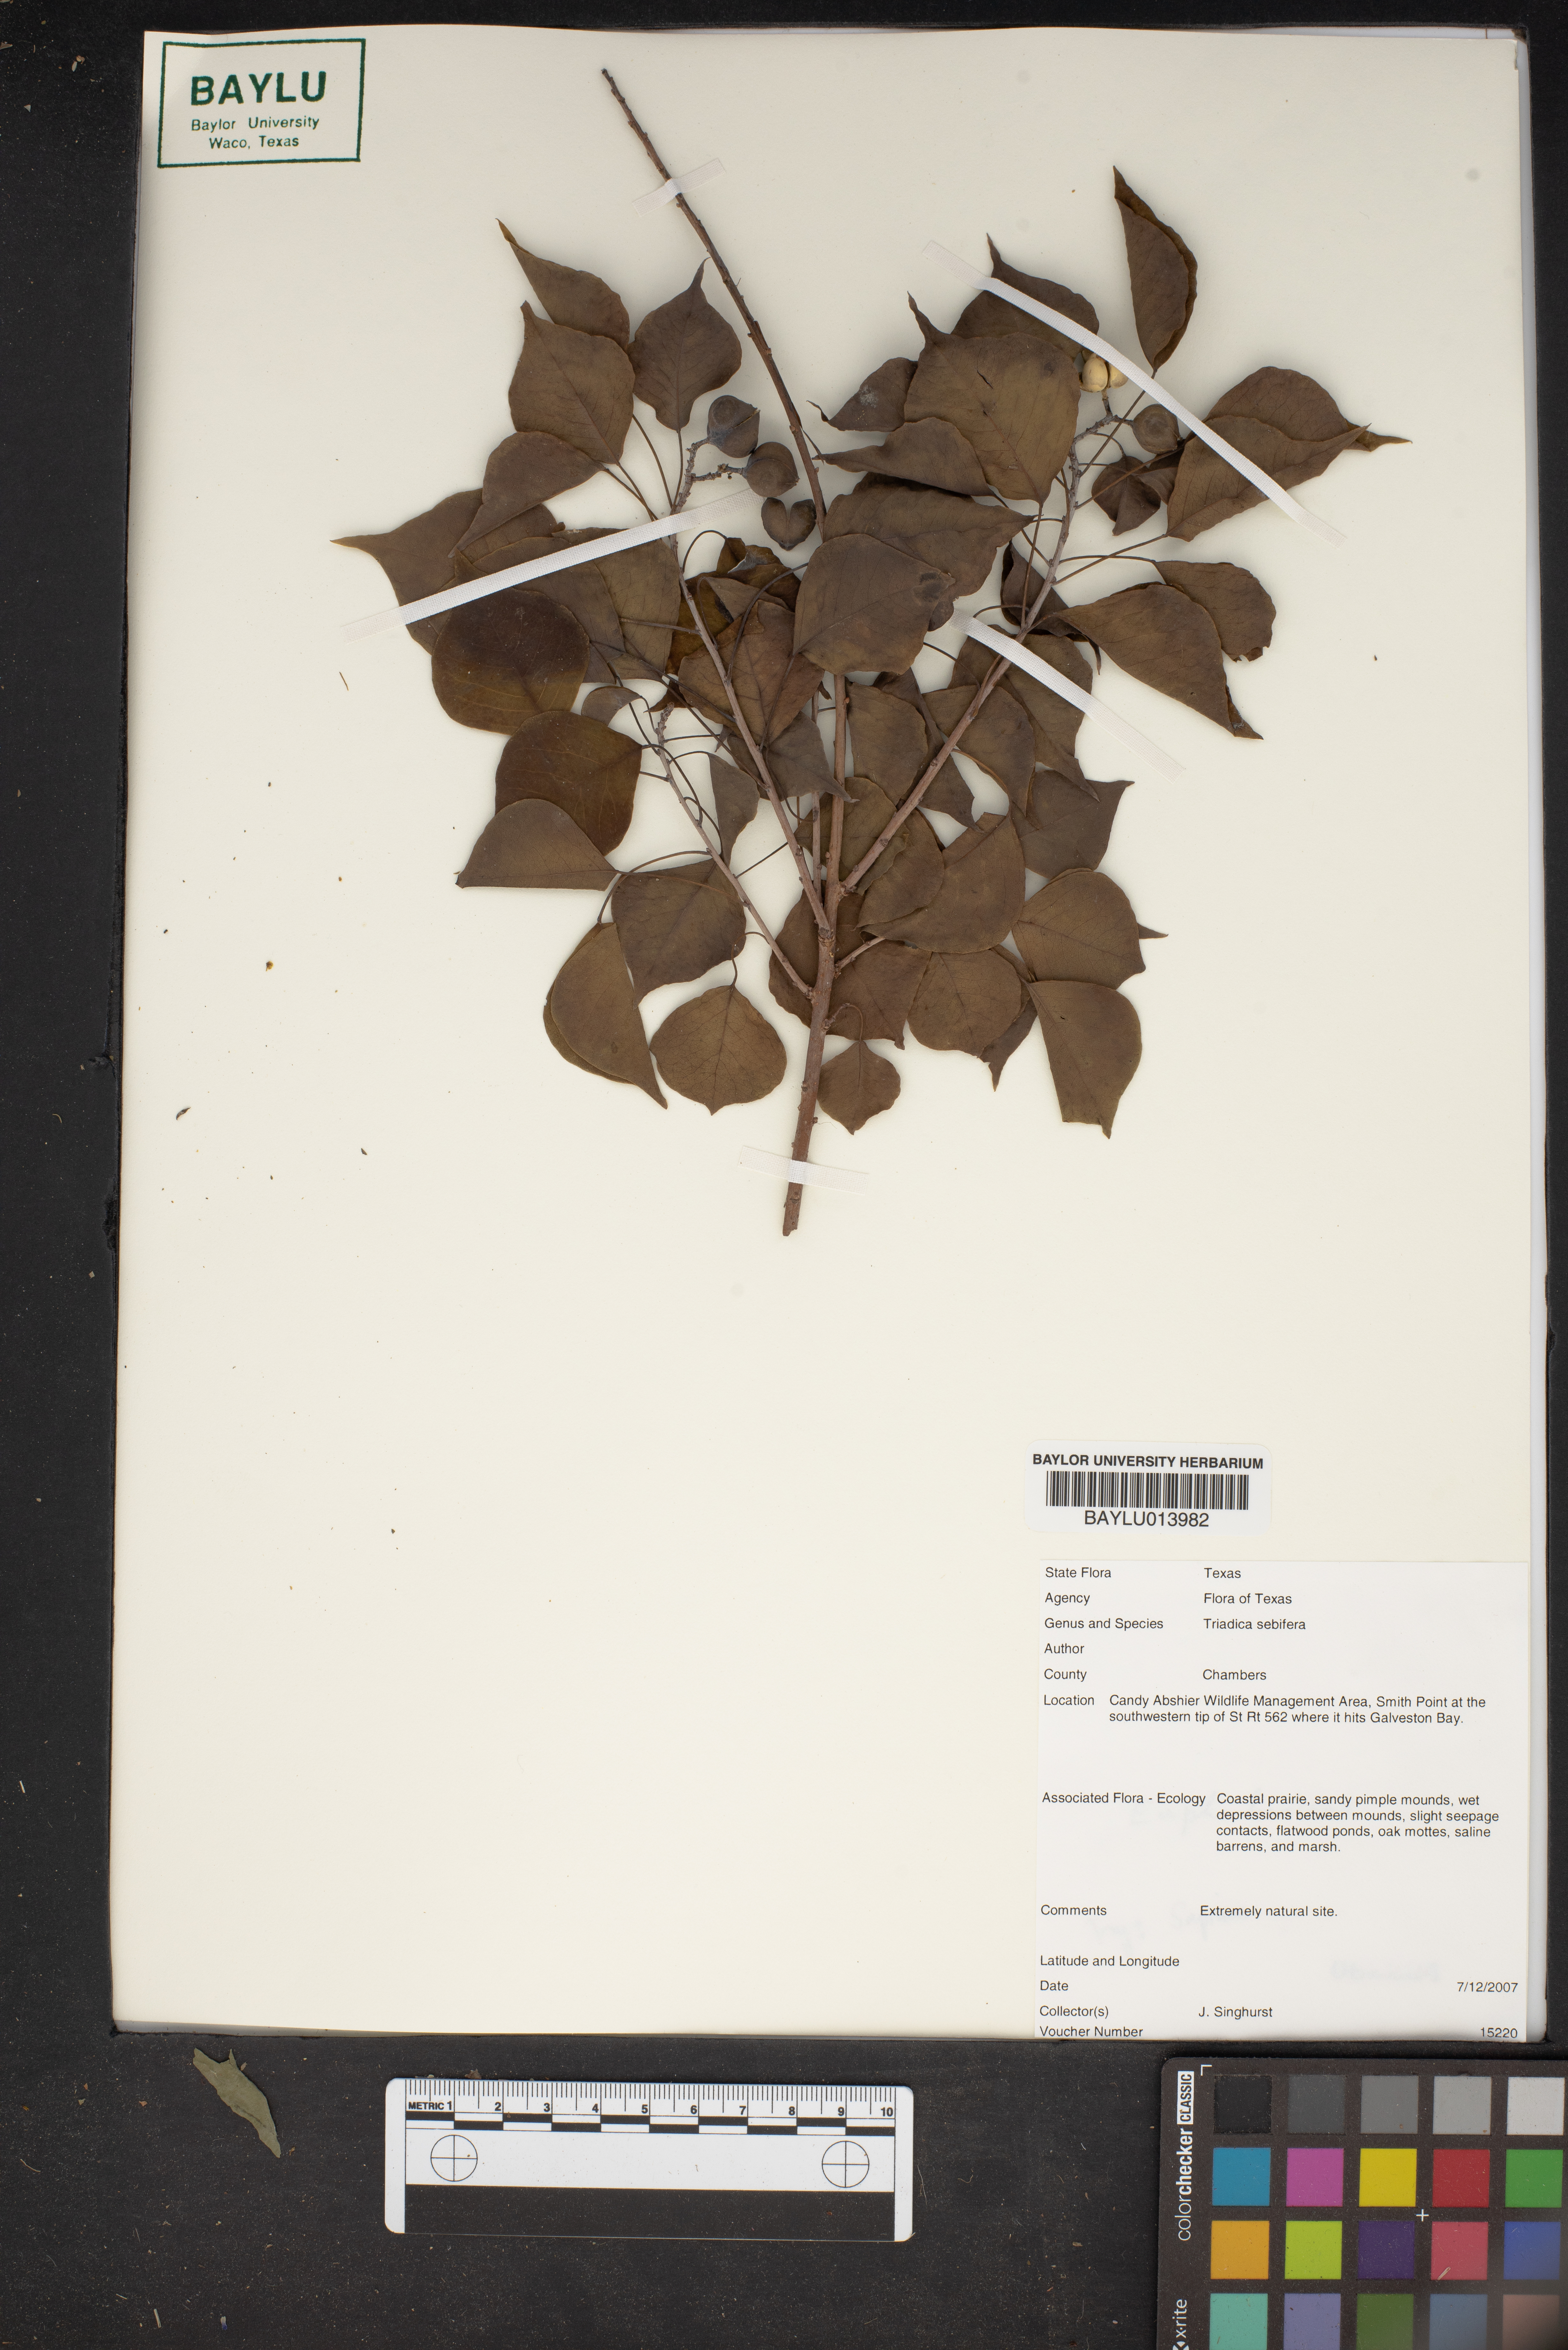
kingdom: Plantae
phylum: Tracheophyta
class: Magnoliopsida
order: Malpighiales
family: Euphorbiaceae
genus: Triadica
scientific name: Triadica sebifera
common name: Chinese tallow
